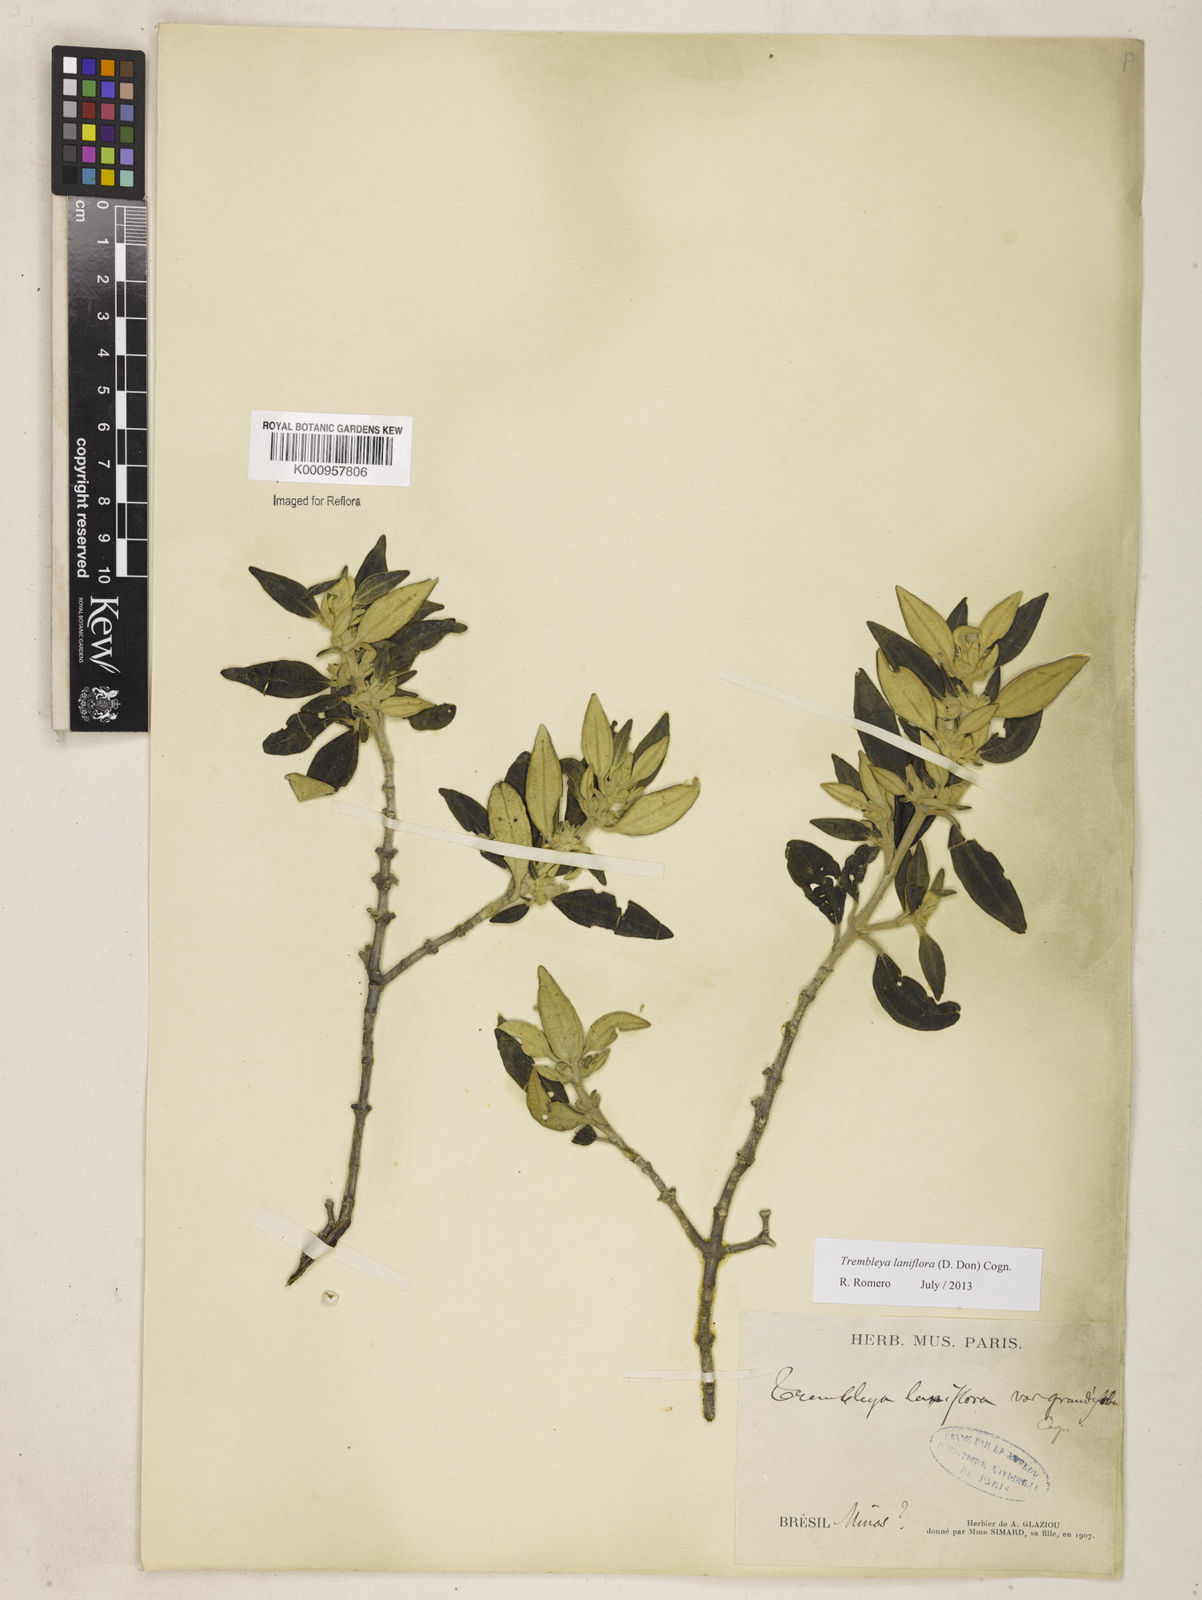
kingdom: Plantae
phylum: Tracheophyta
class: Magnoliopsida
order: Myrtales
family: Melastomataceae
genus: Microlicia
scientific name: Microlicia laniflora
